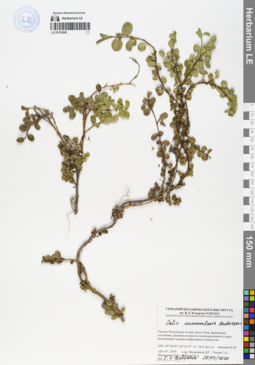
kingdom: Plantae
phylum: Tracheophyta
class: Magnoliopsida
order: Malpighiales
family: Salicaceae
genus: Salix
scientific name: Salix nummularia
